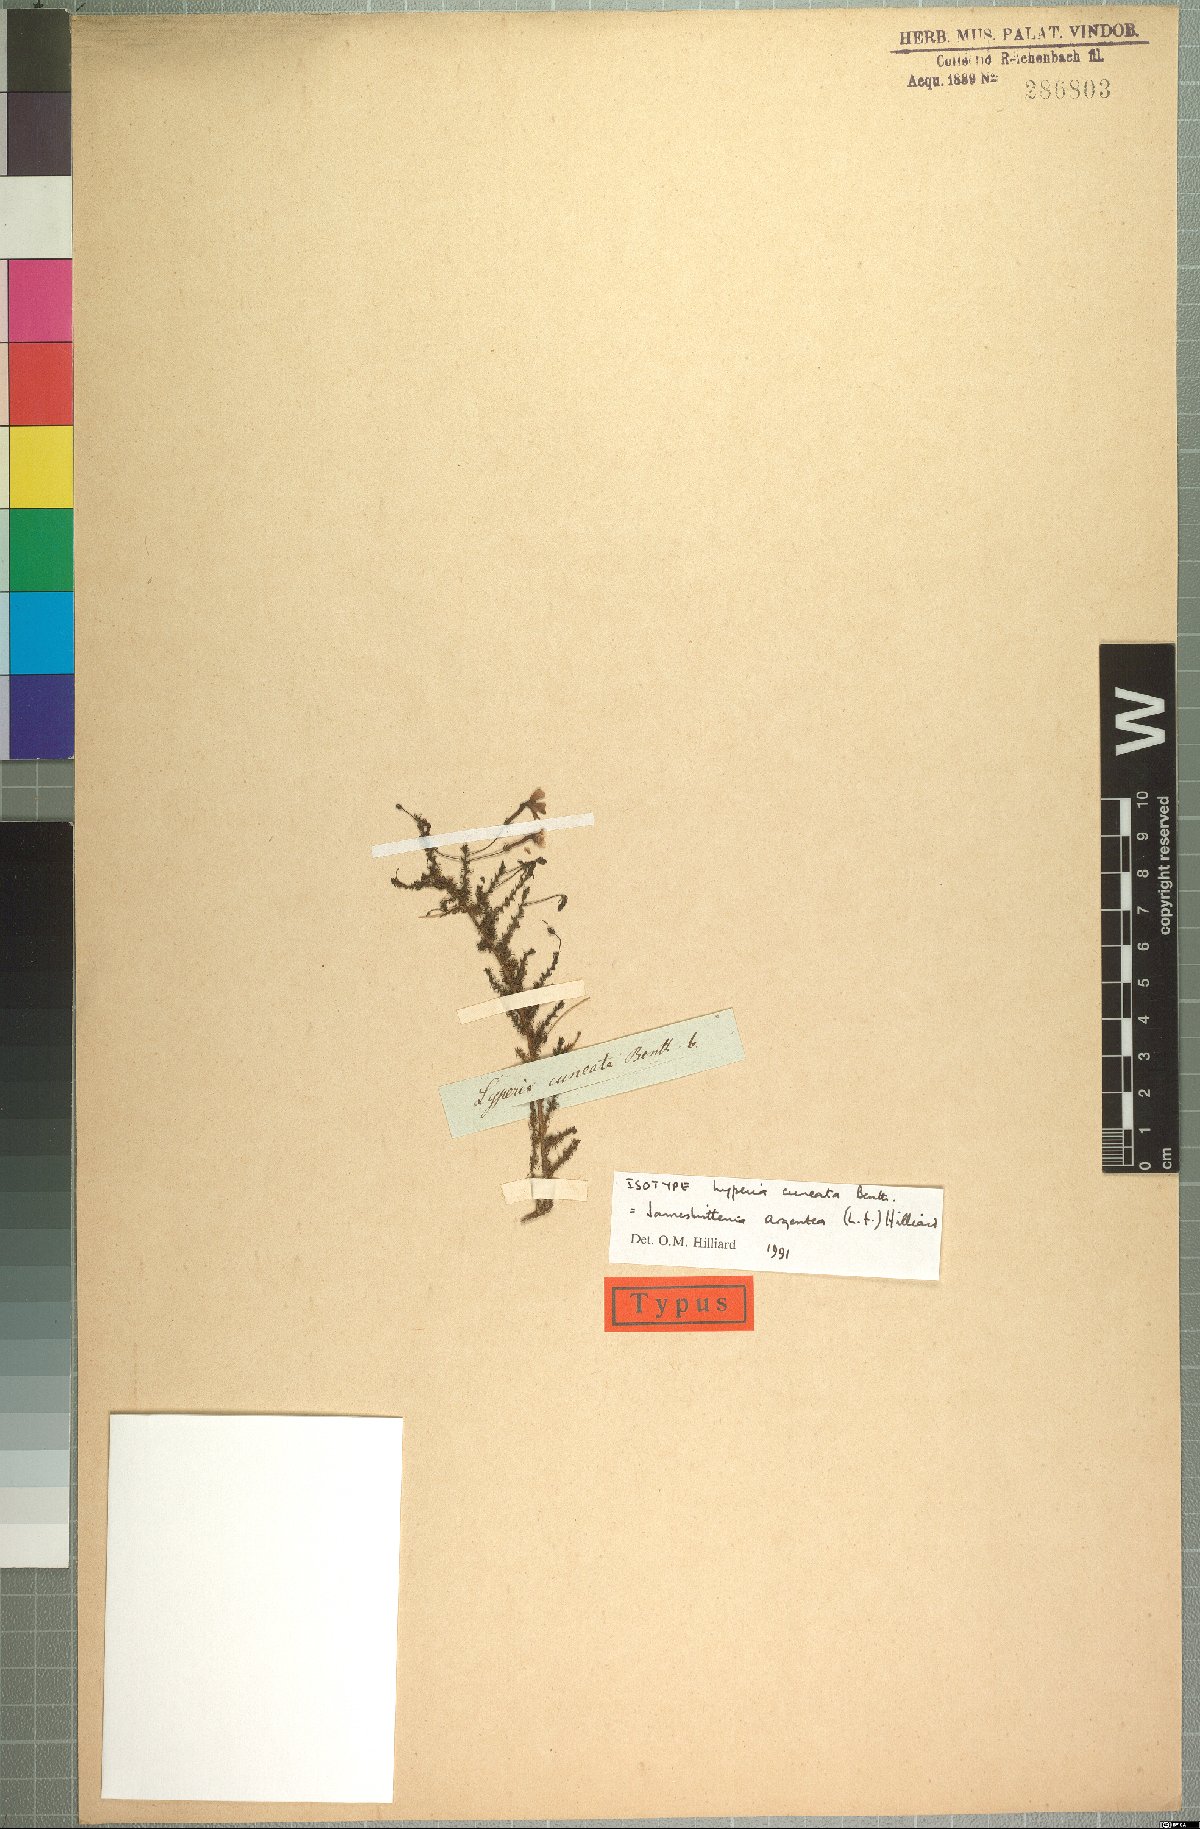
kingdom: Plantae
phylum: Tracheophyta
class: Magnoliopsida
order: Lamiales
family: Scrophulariaceae
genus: Jamesbrittenia
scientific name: Jamesbrittenia argentea
